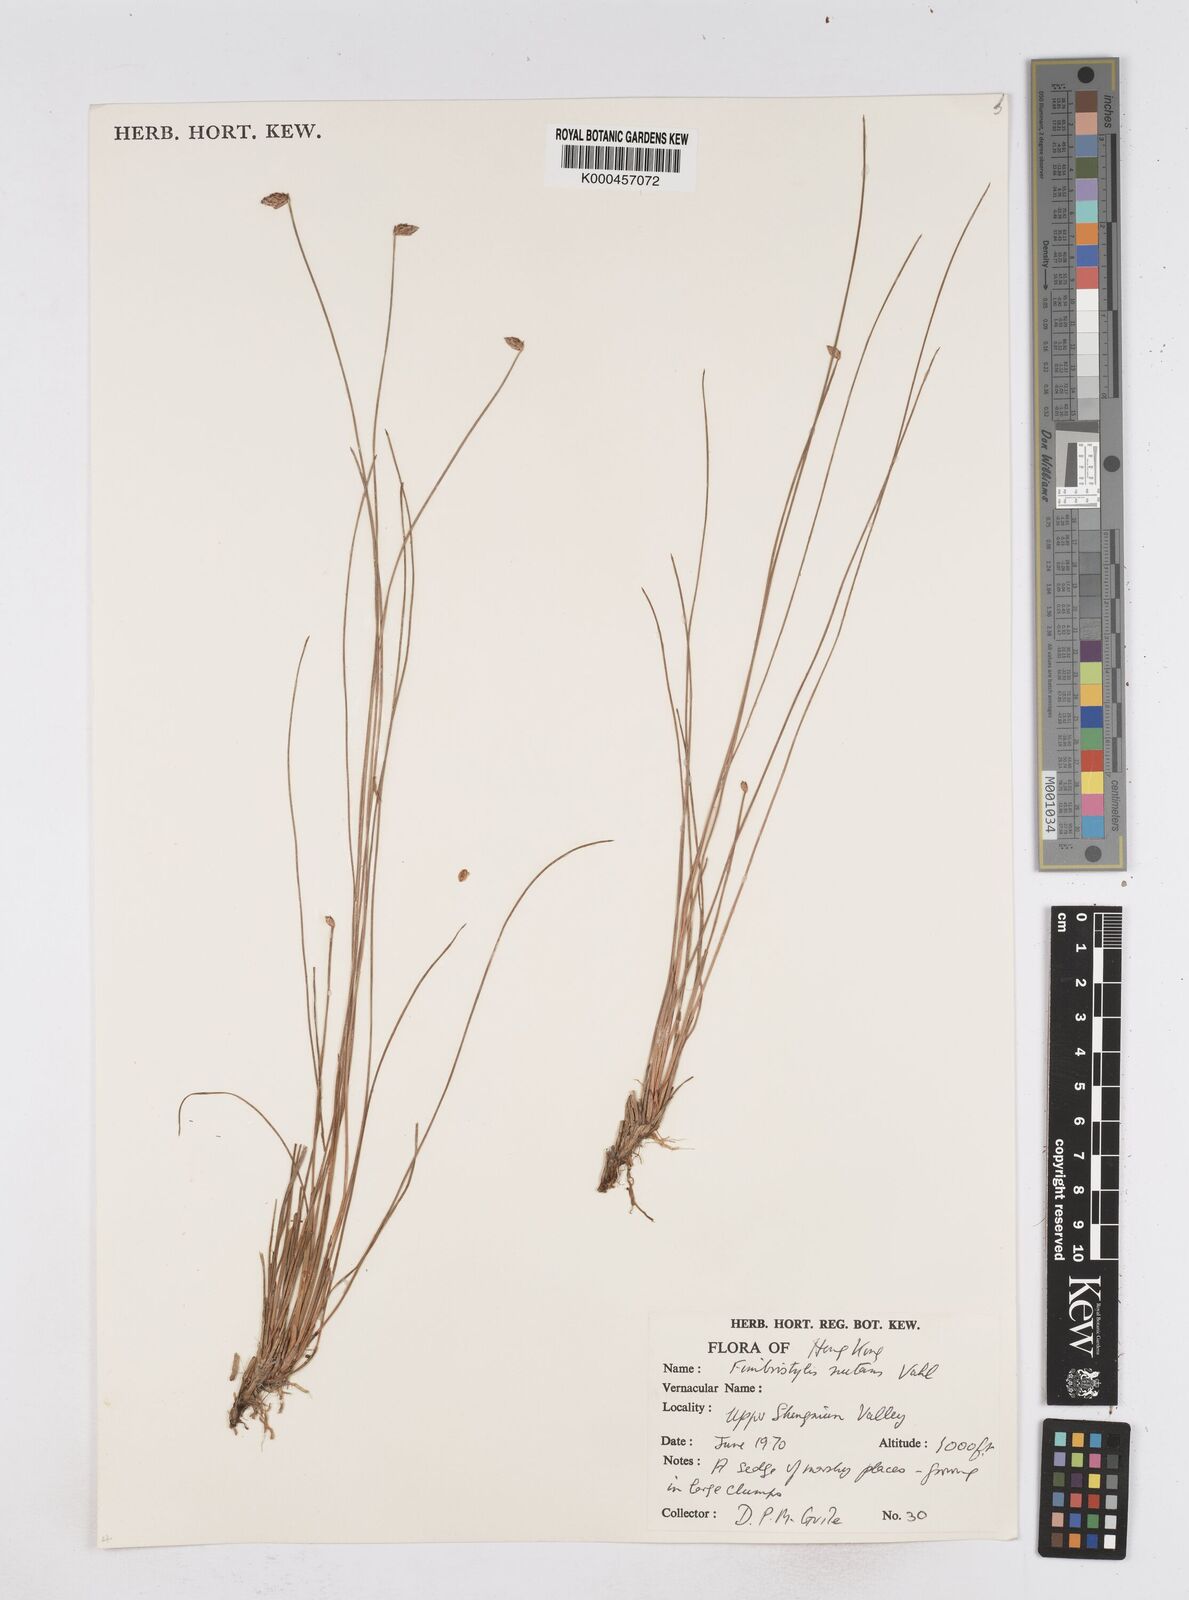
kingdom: Plantae
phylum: Tracheophyta
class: Liliopsida
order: Poales
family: Cyperaceae
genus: Fimbristylis
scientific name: Fimbristylis nutans
